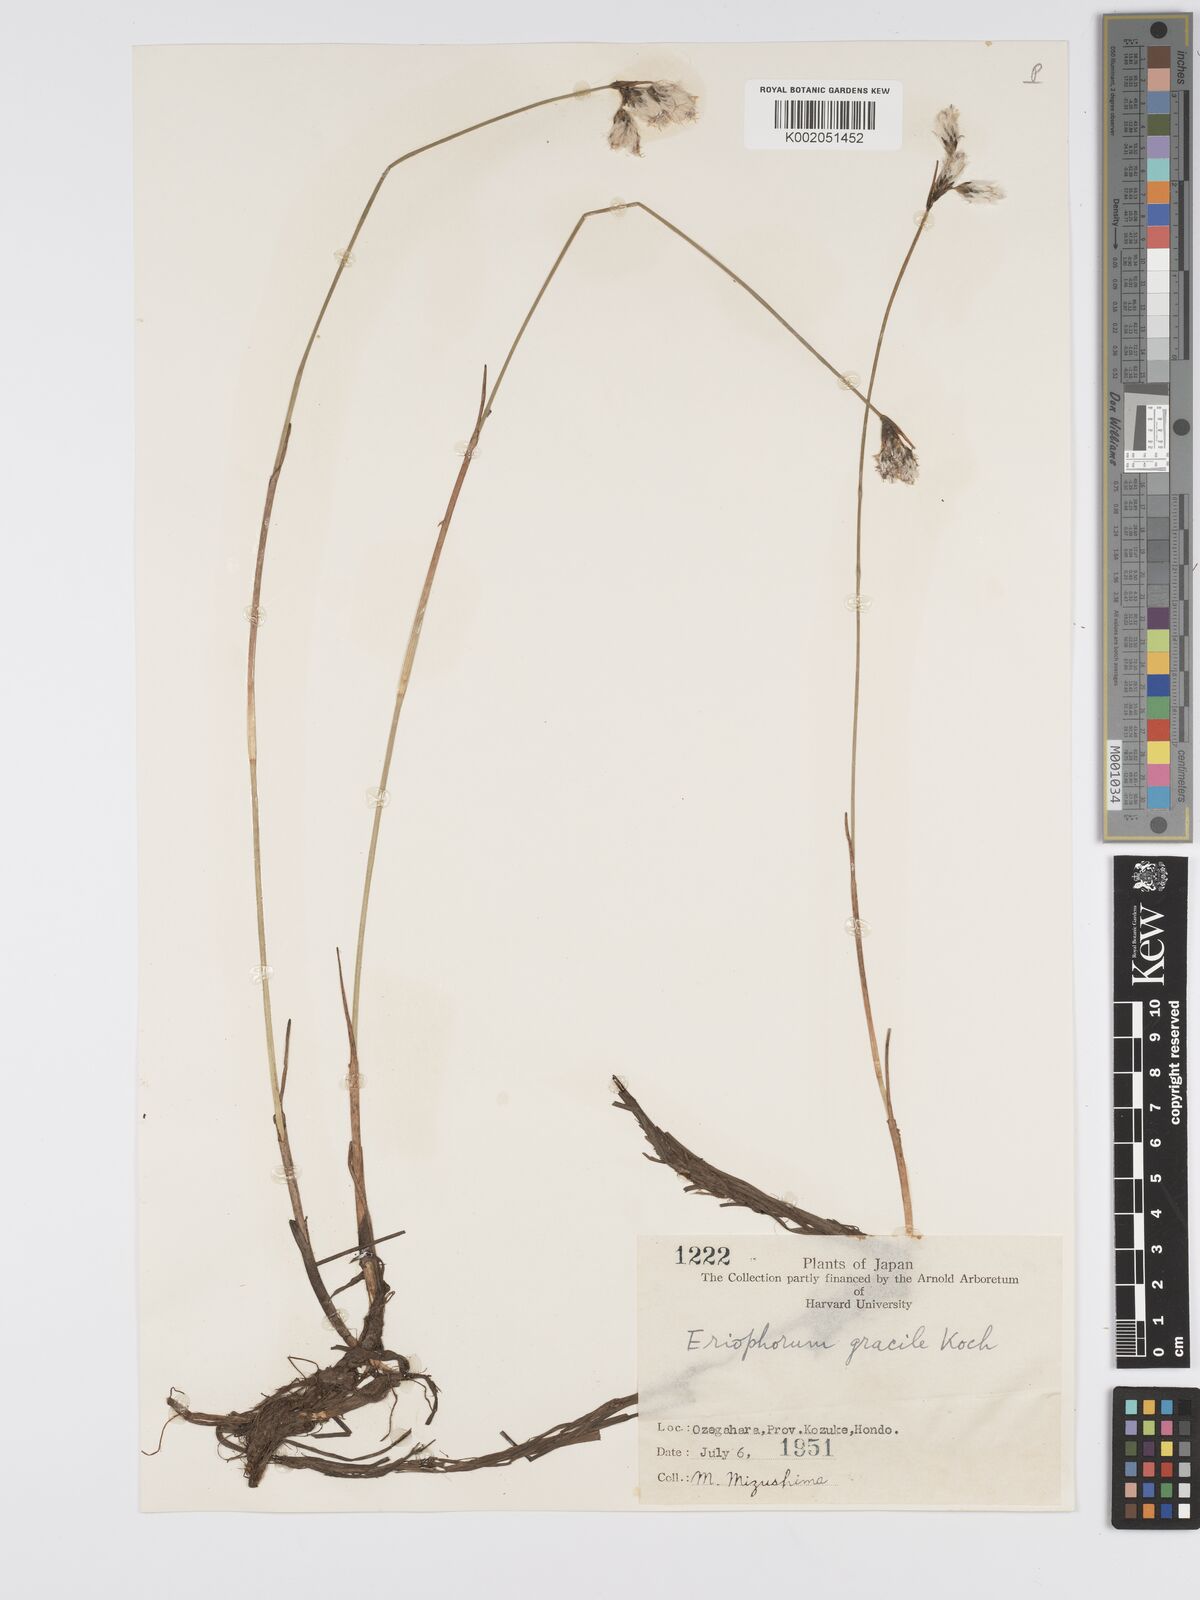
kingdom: Plantae
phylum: Tracheophyta
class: Liliopsida
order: Poales
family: Cyperaceae
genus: Eriophorum
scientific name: Eriophorum gracile
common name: Slender cottongrass
